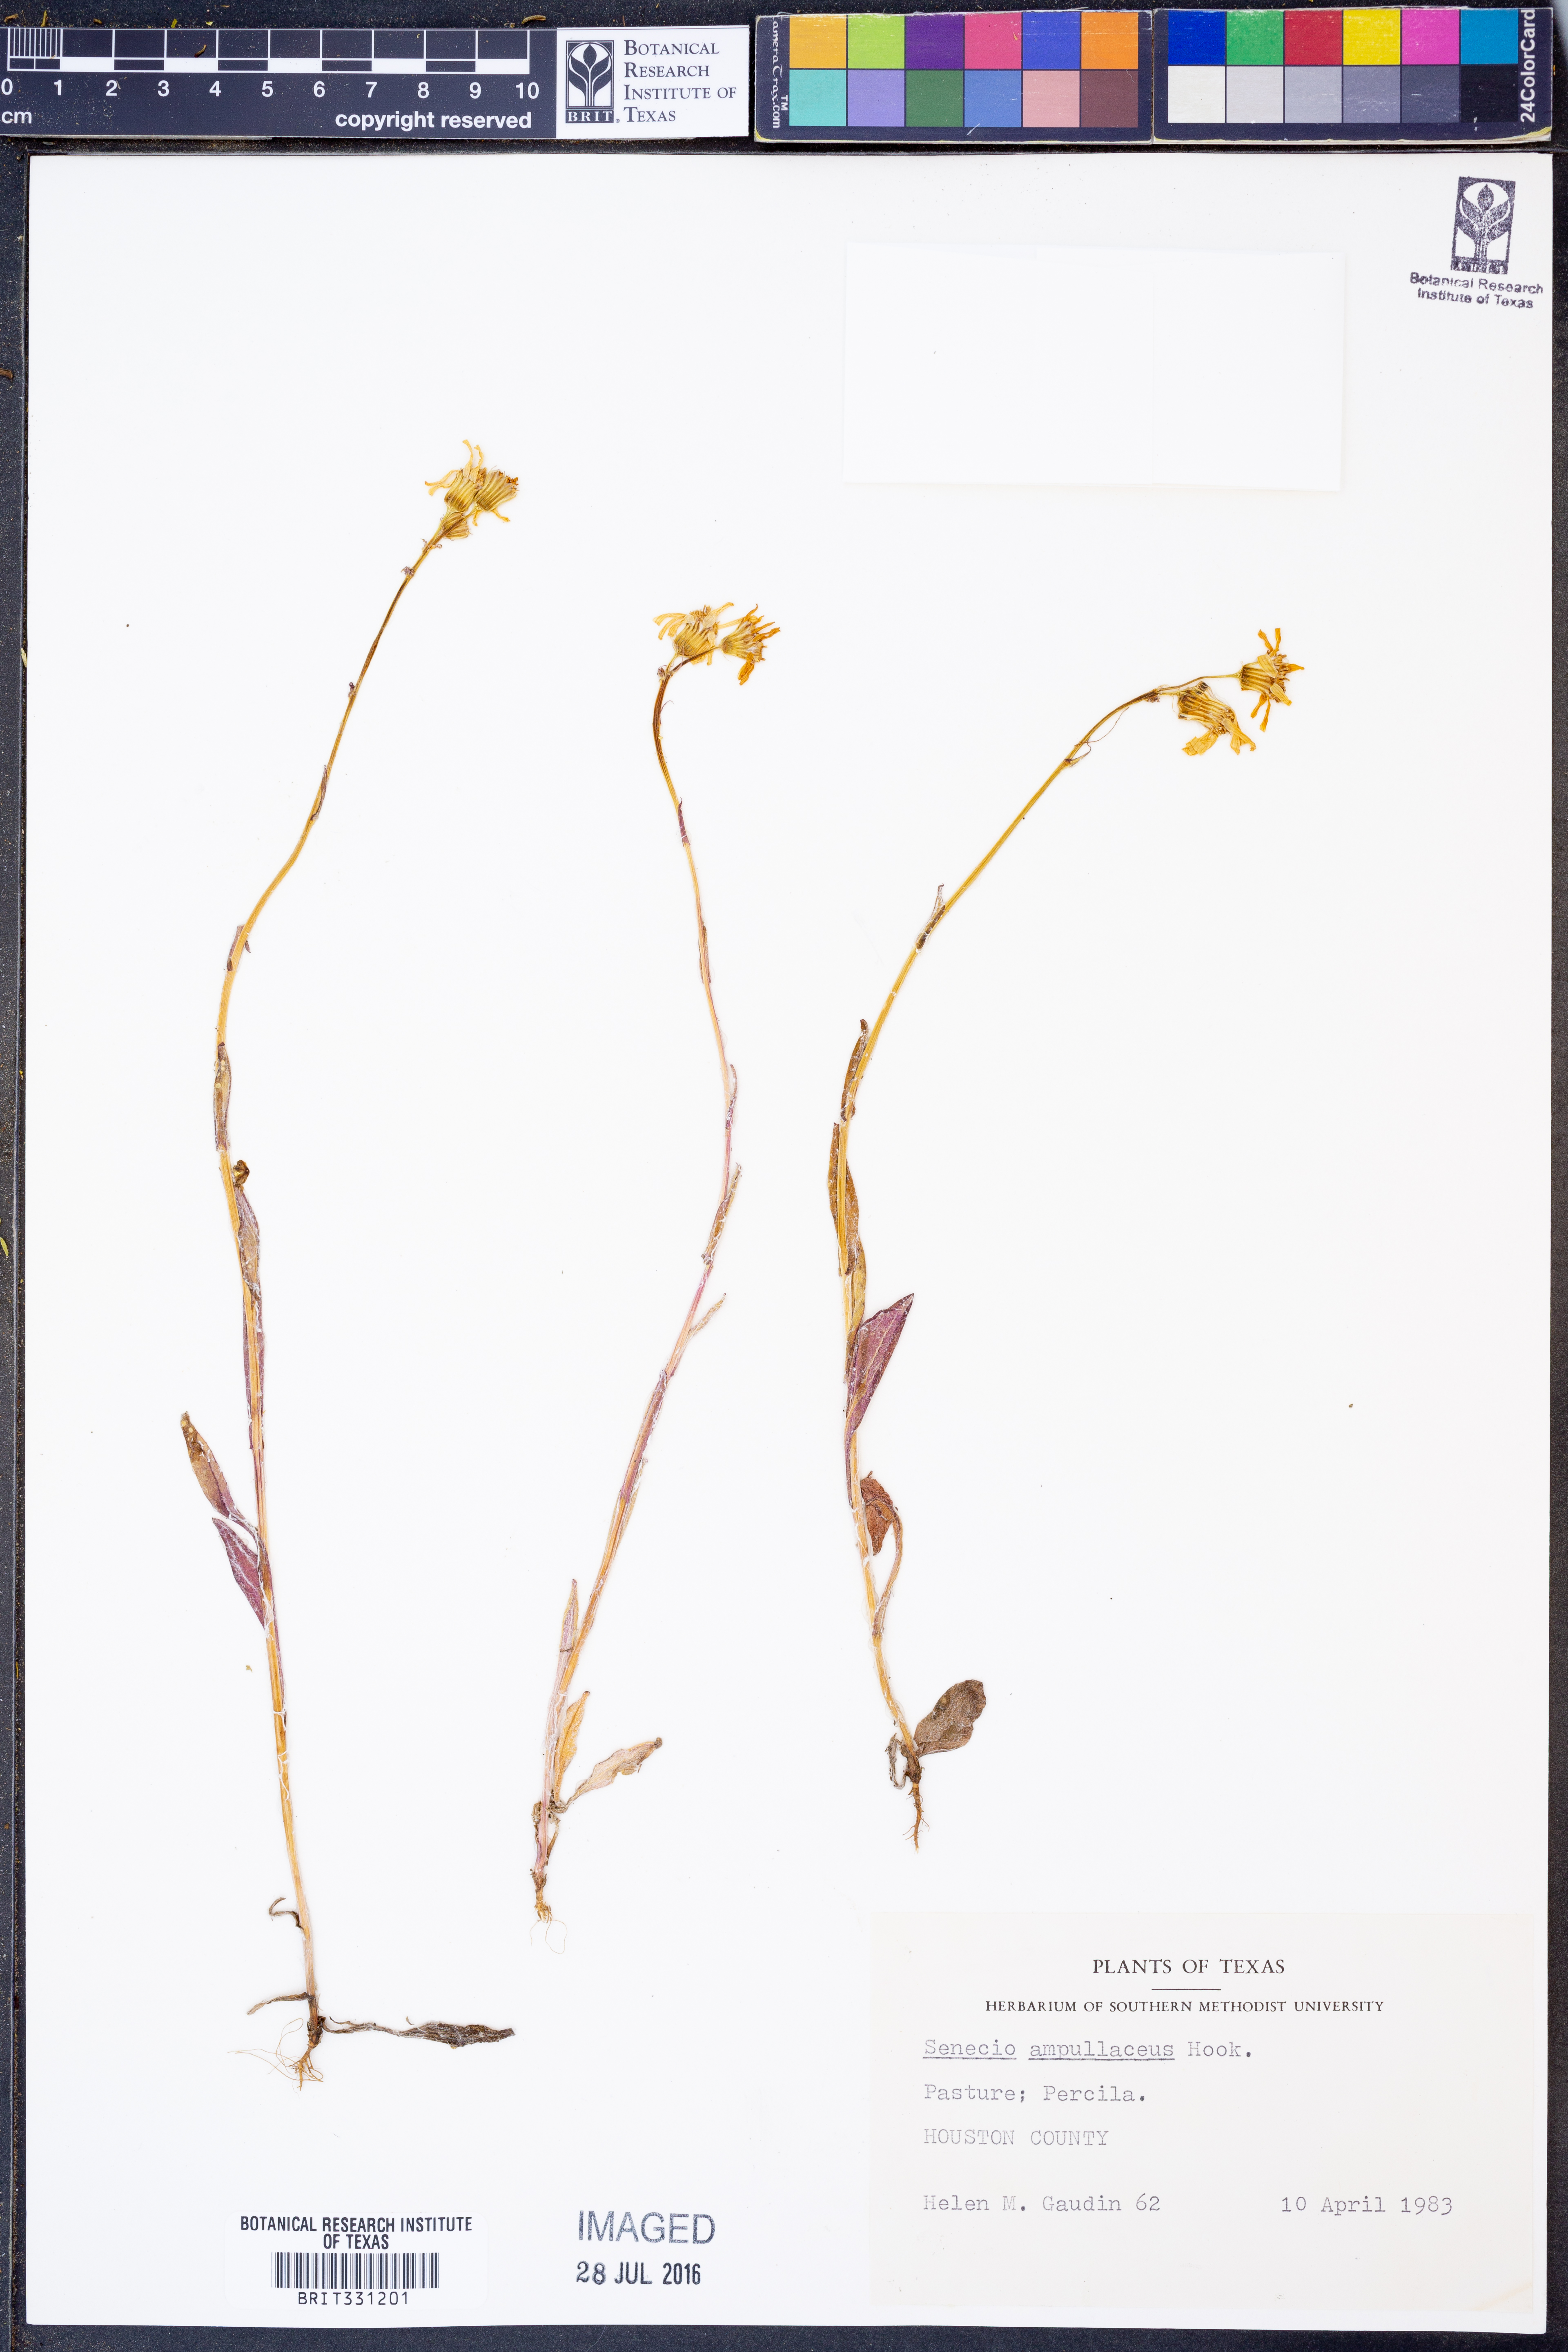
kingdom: Plantae
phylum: Tracheophyta
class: Magnoliopsida
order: Asterales
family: Asteraceae
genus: Senecio
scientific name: Senecio ampullaceus
